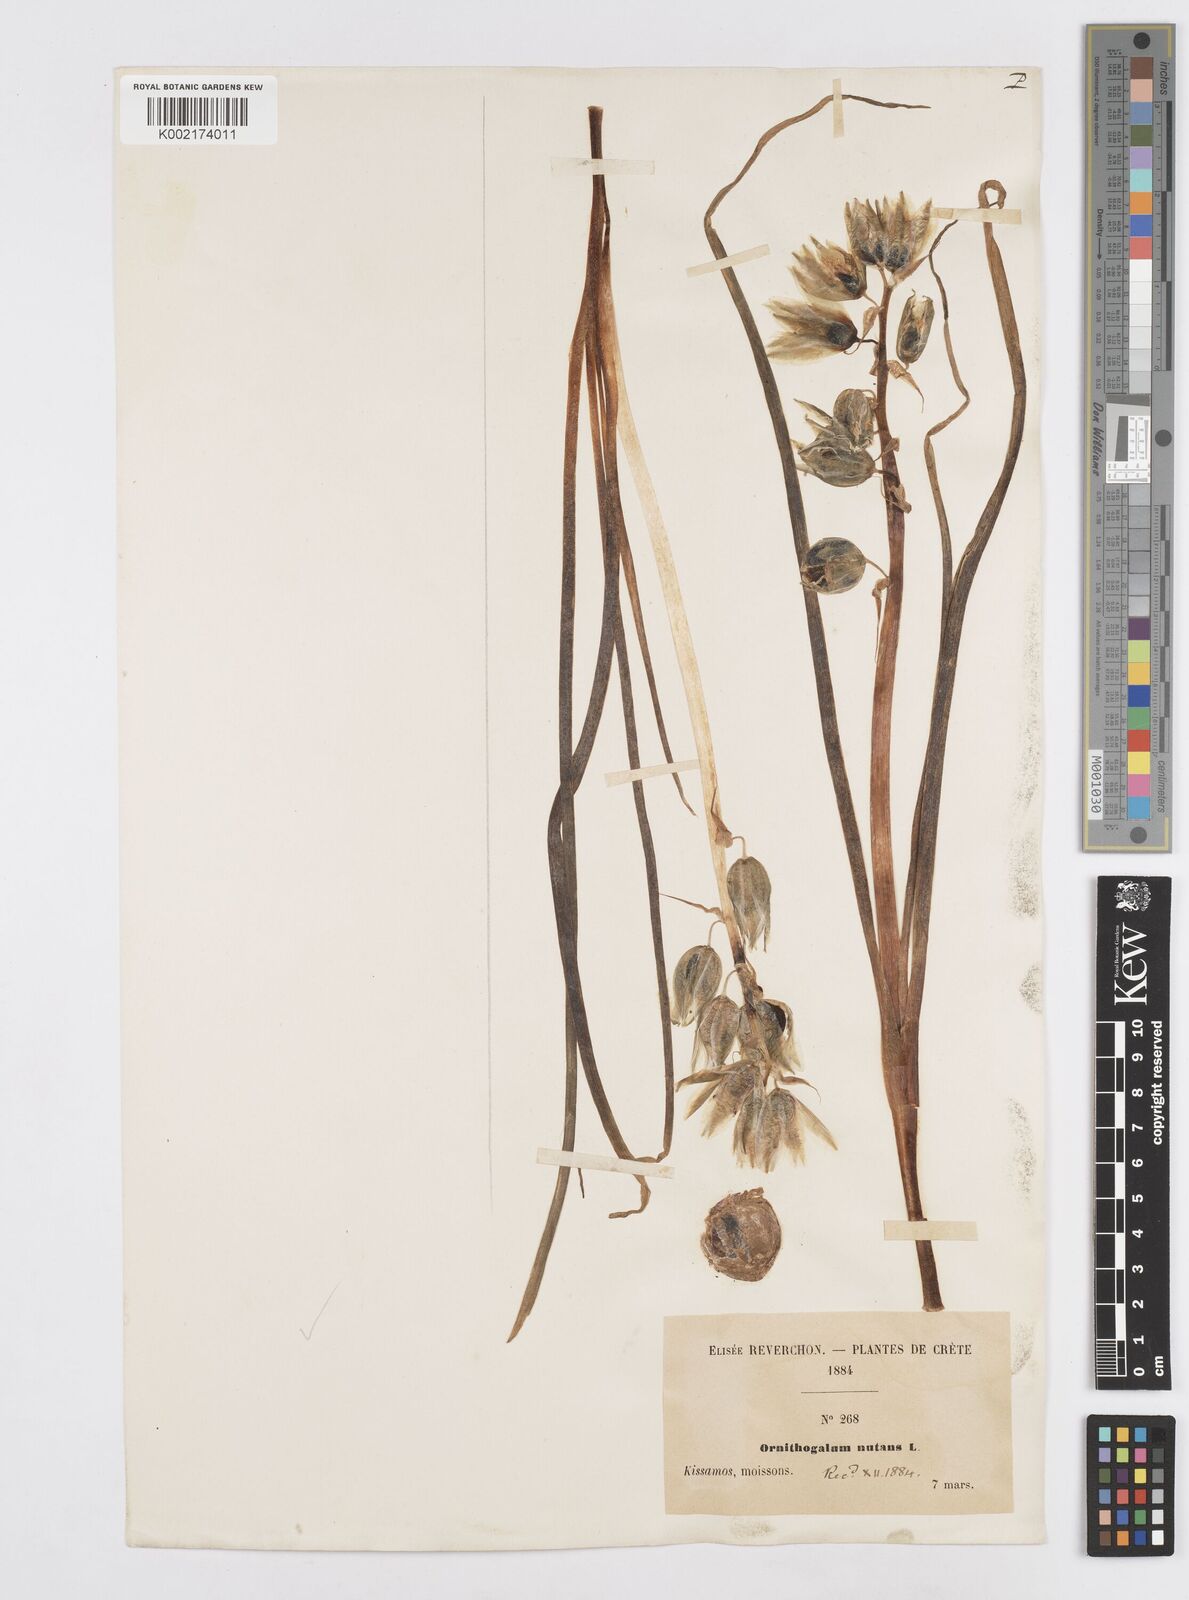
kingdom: Plantae
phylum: Tracheophyta
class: Liliopsida
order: Asparagales
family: Asparagaceae
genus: Ornithogalum
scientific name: Ornithogalum nutans
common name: Drooping star-of-bethlehem
